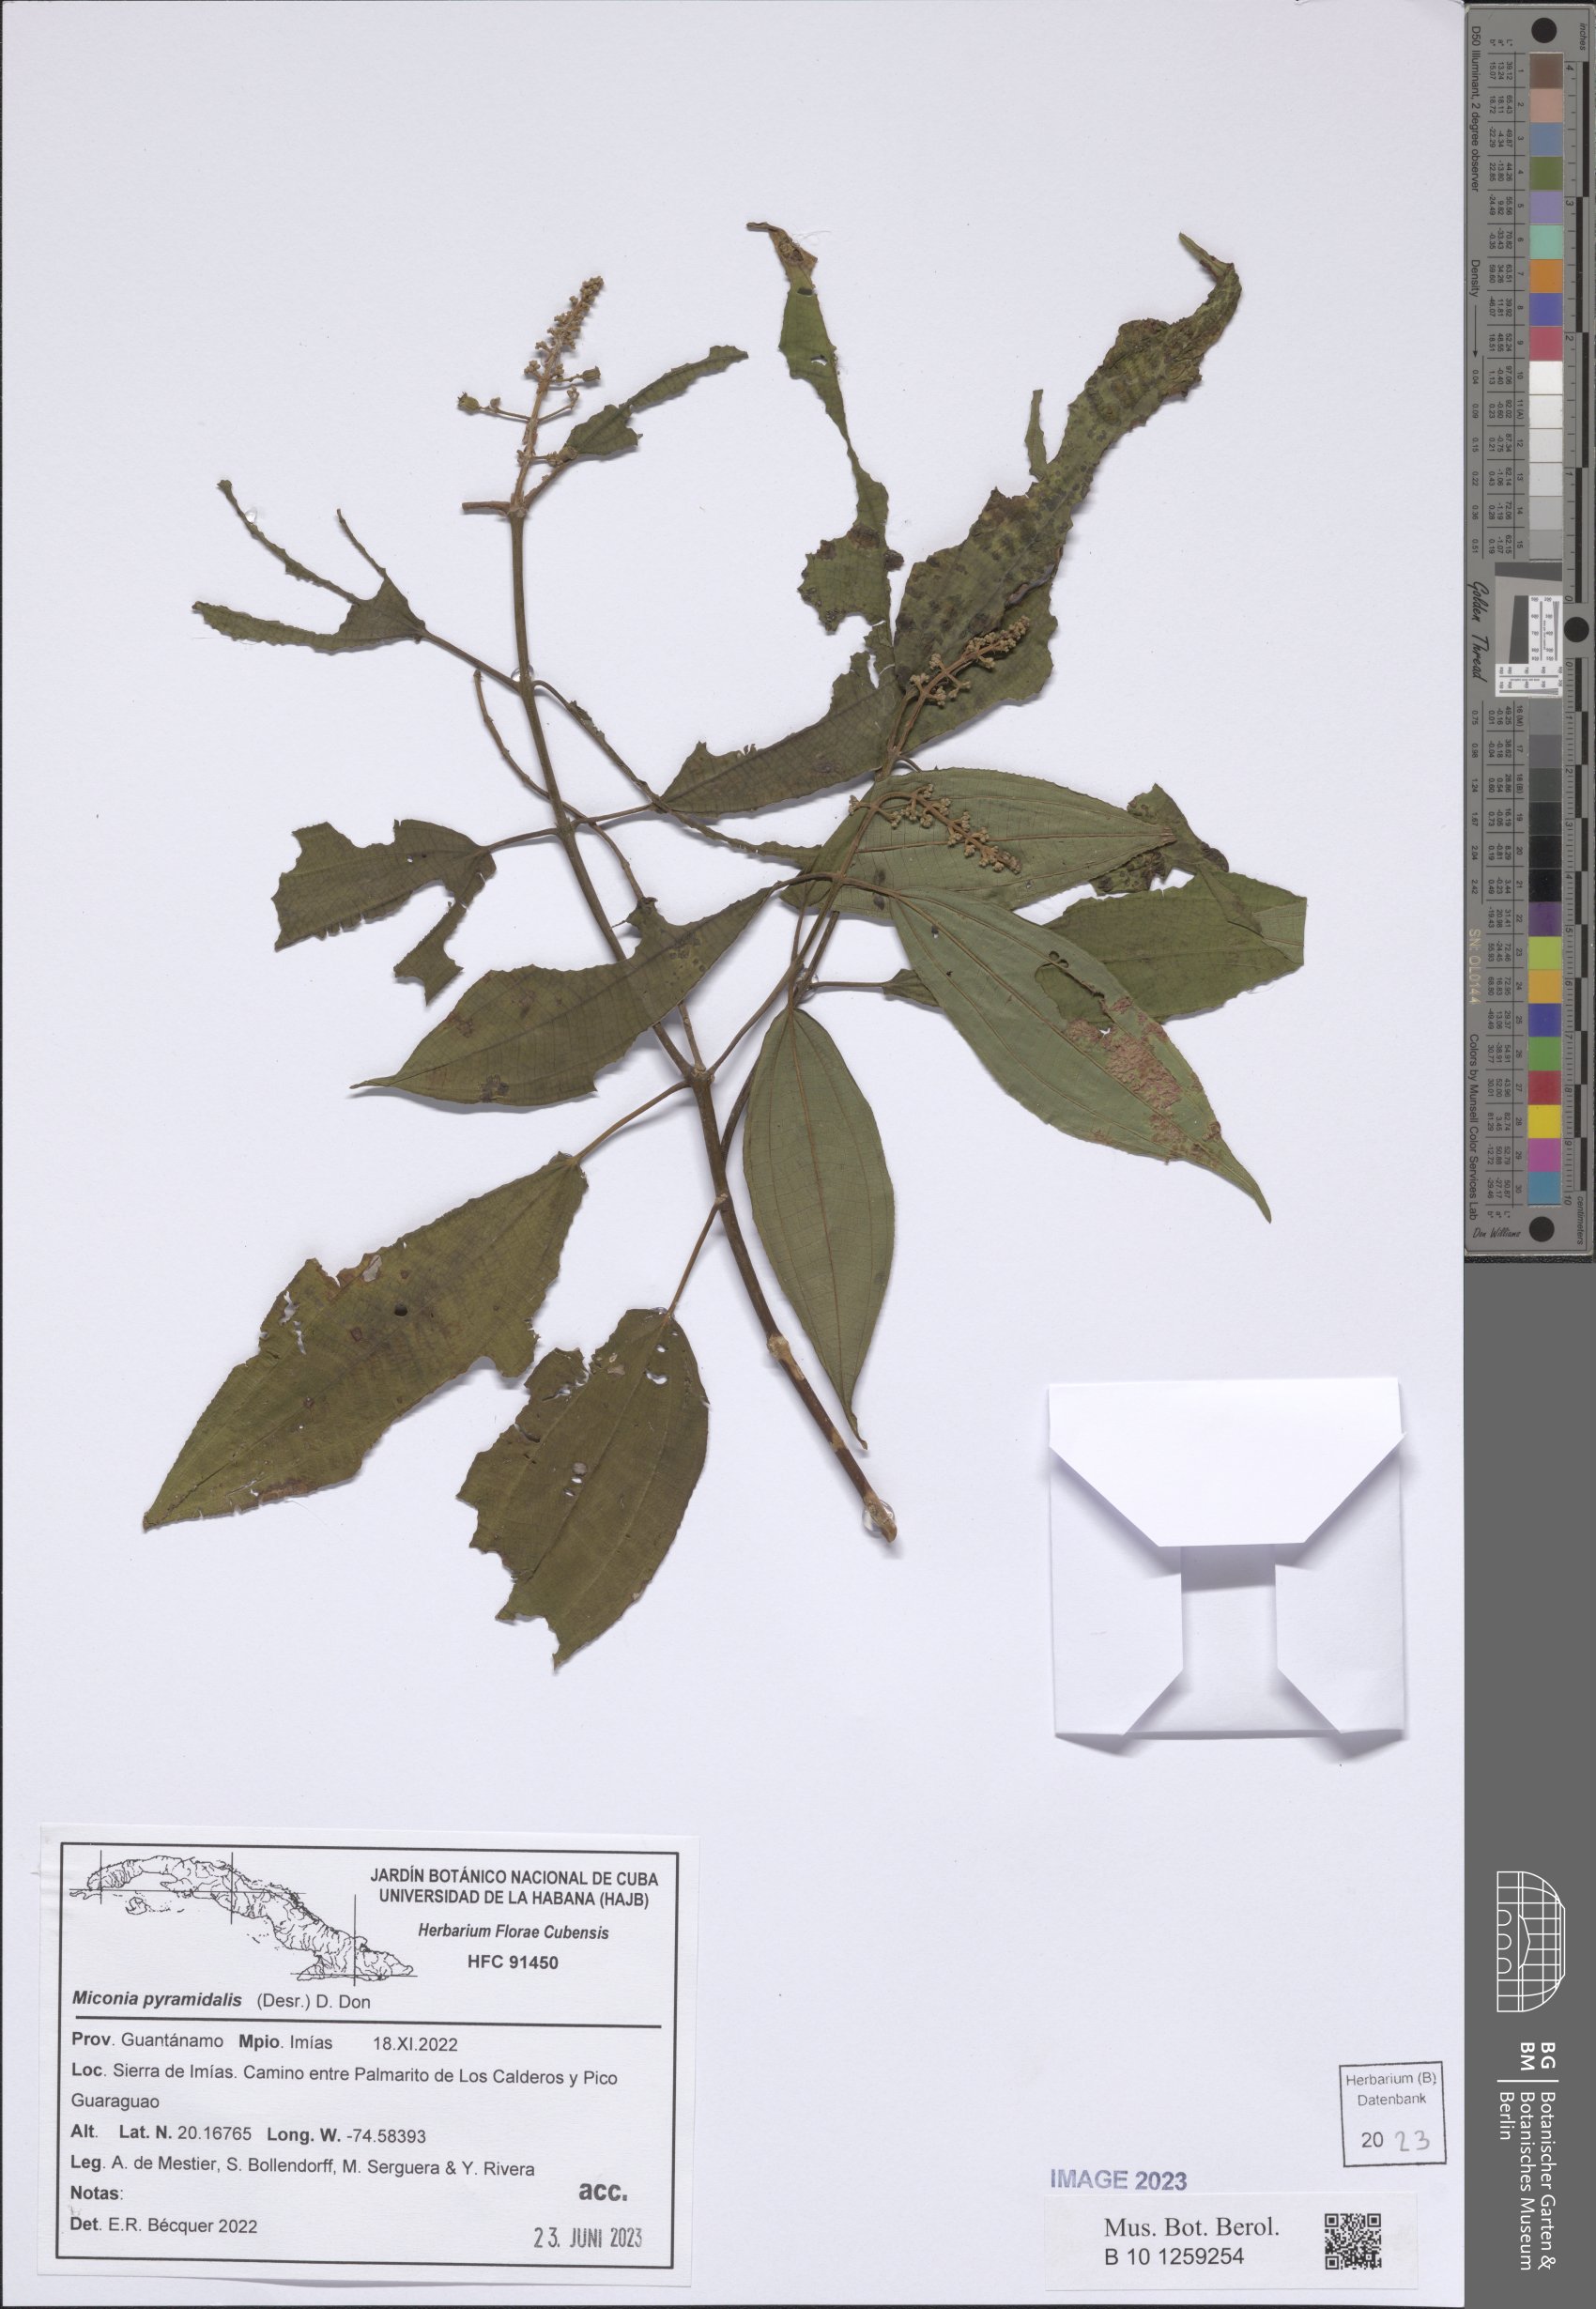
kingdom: Plantae
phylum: Tracheophyta
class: Magnoliopsida
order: Myrtales
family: Melastomataceae
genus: Miconia
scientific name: Miconia pyramidalis
